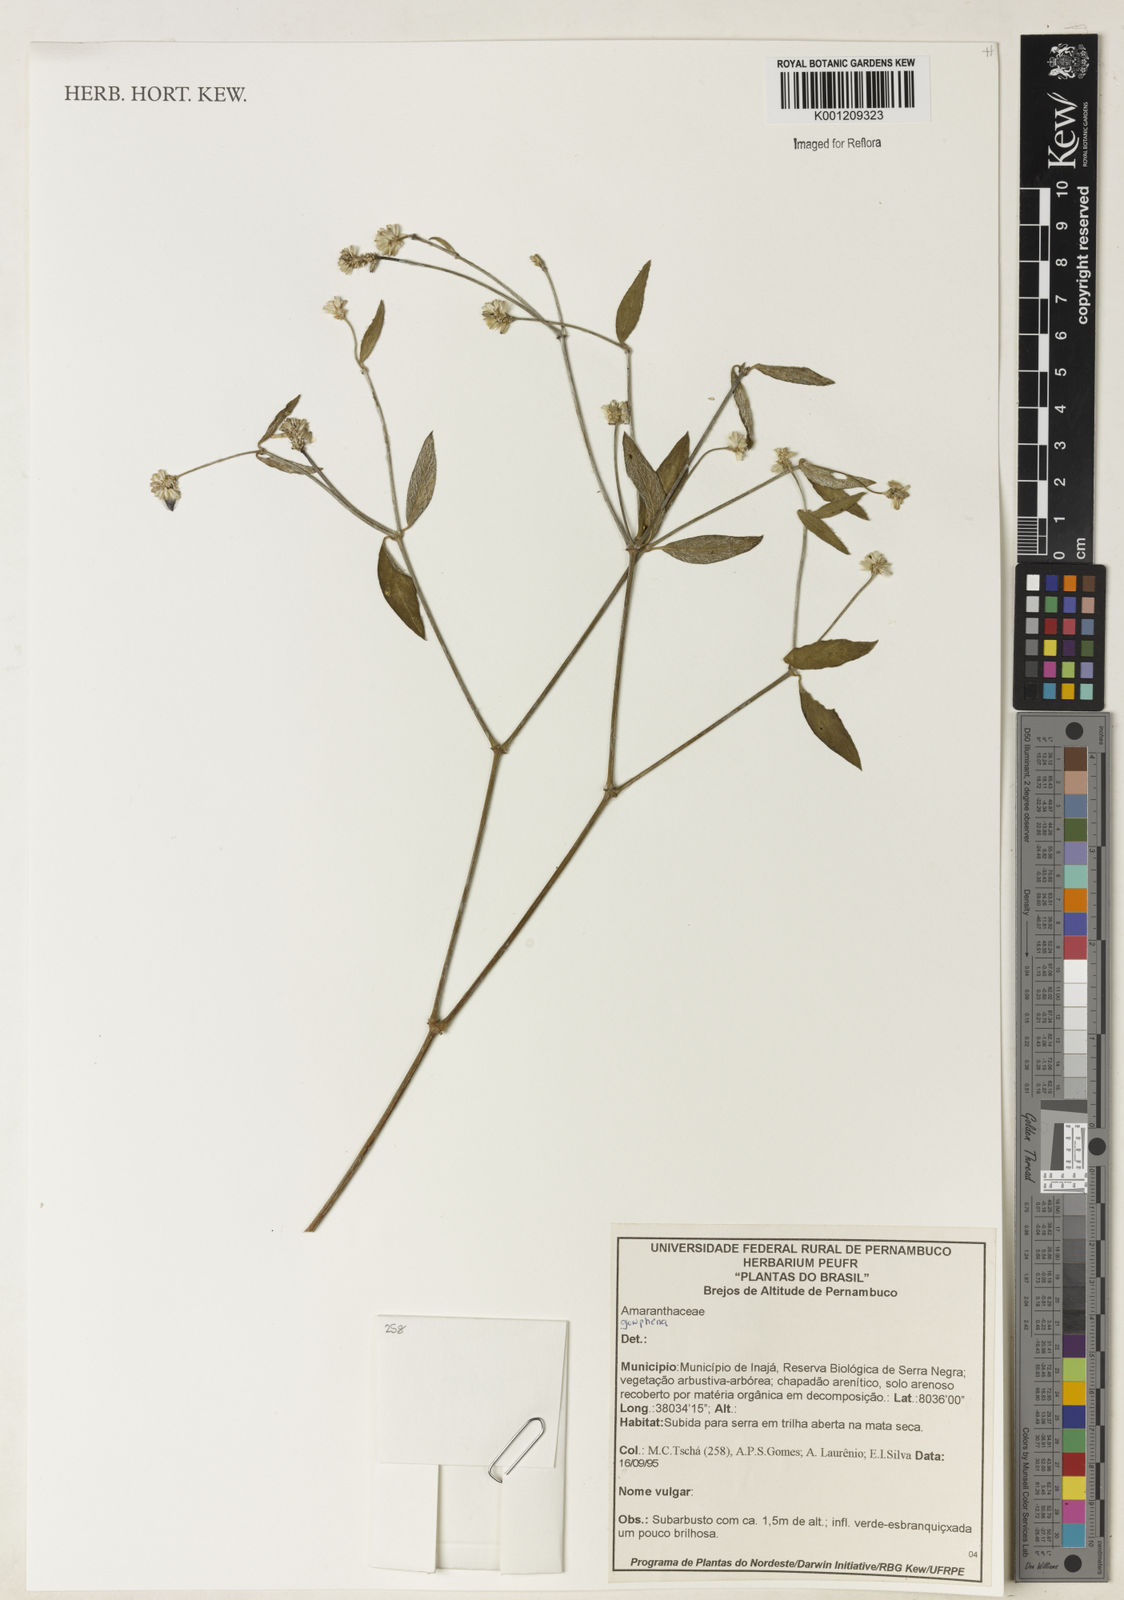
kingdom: Plantae
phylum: Tracheophyta
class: Magnoliopsida
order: Caryophyllales
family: Amaranthaceae
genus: Gomphrena
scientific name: Gomphrena
